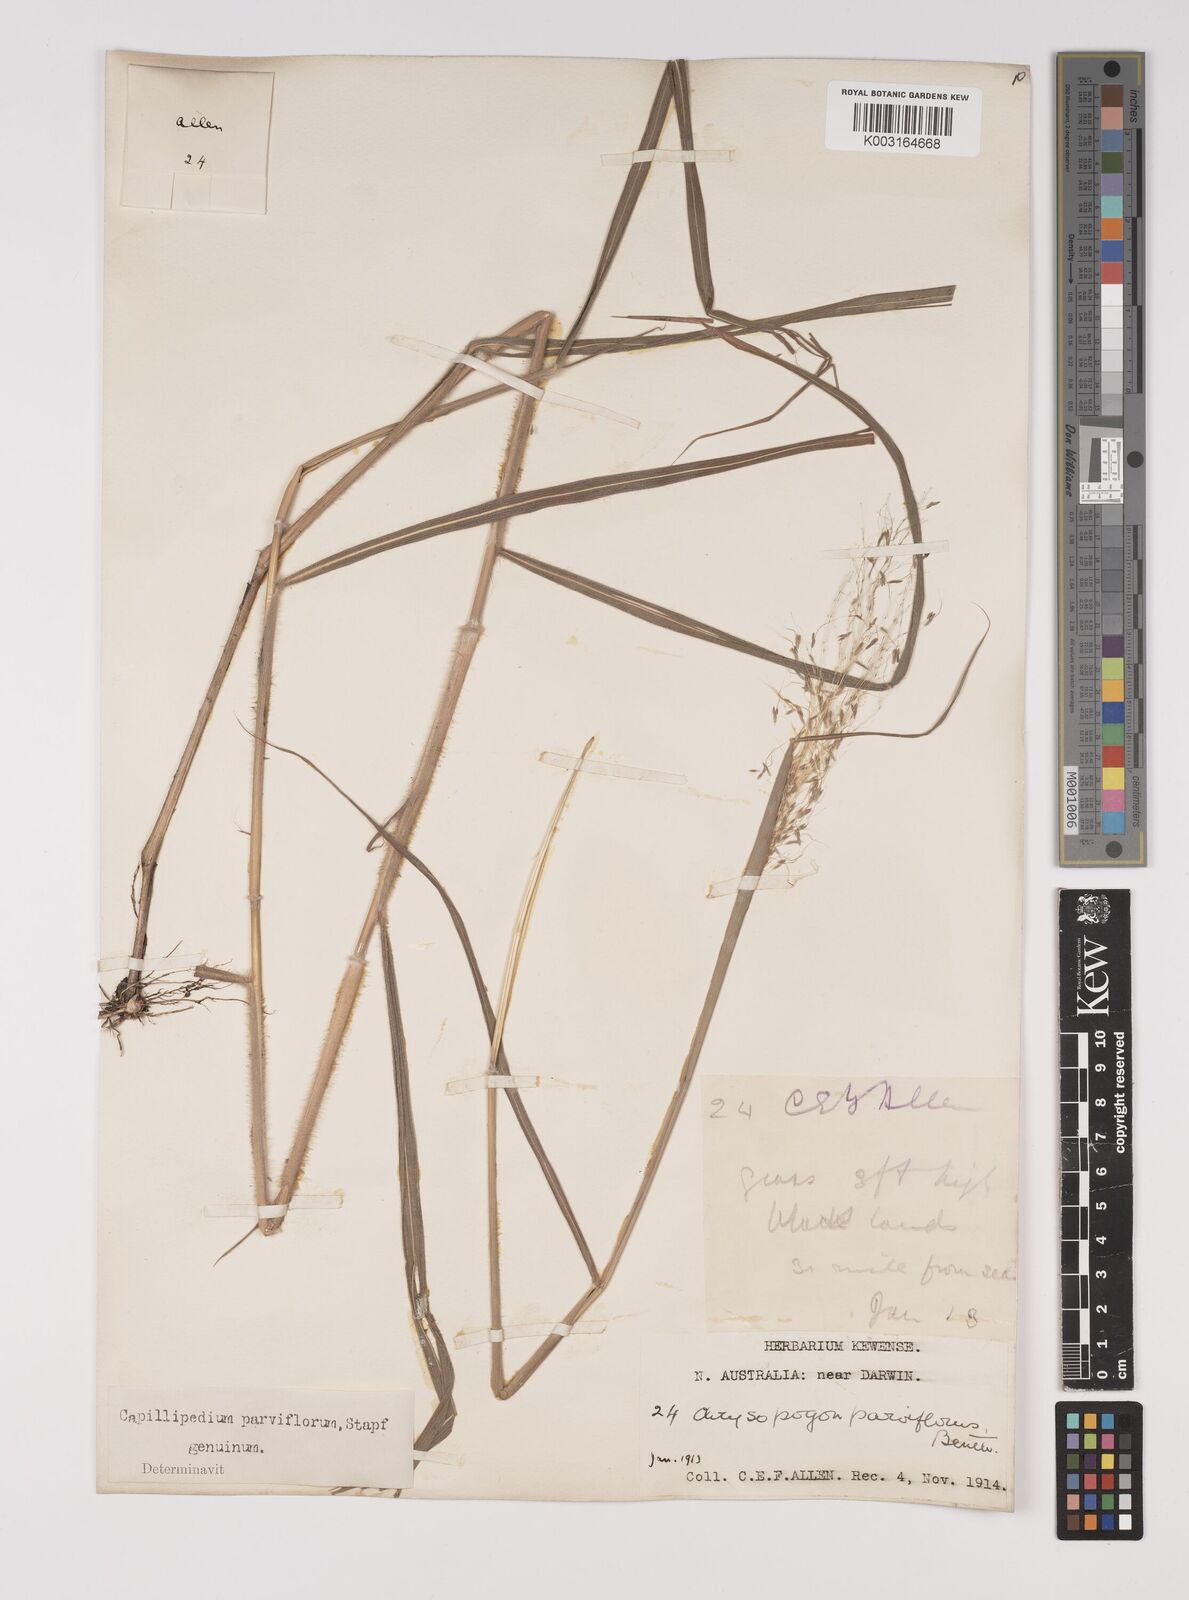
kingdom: Plantae
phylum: Tracheophyta
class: Liliopsida
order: Poales
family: Poaceae
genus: Capillipedium
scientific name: Capillipedium parviflorum
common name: Golden-beard
